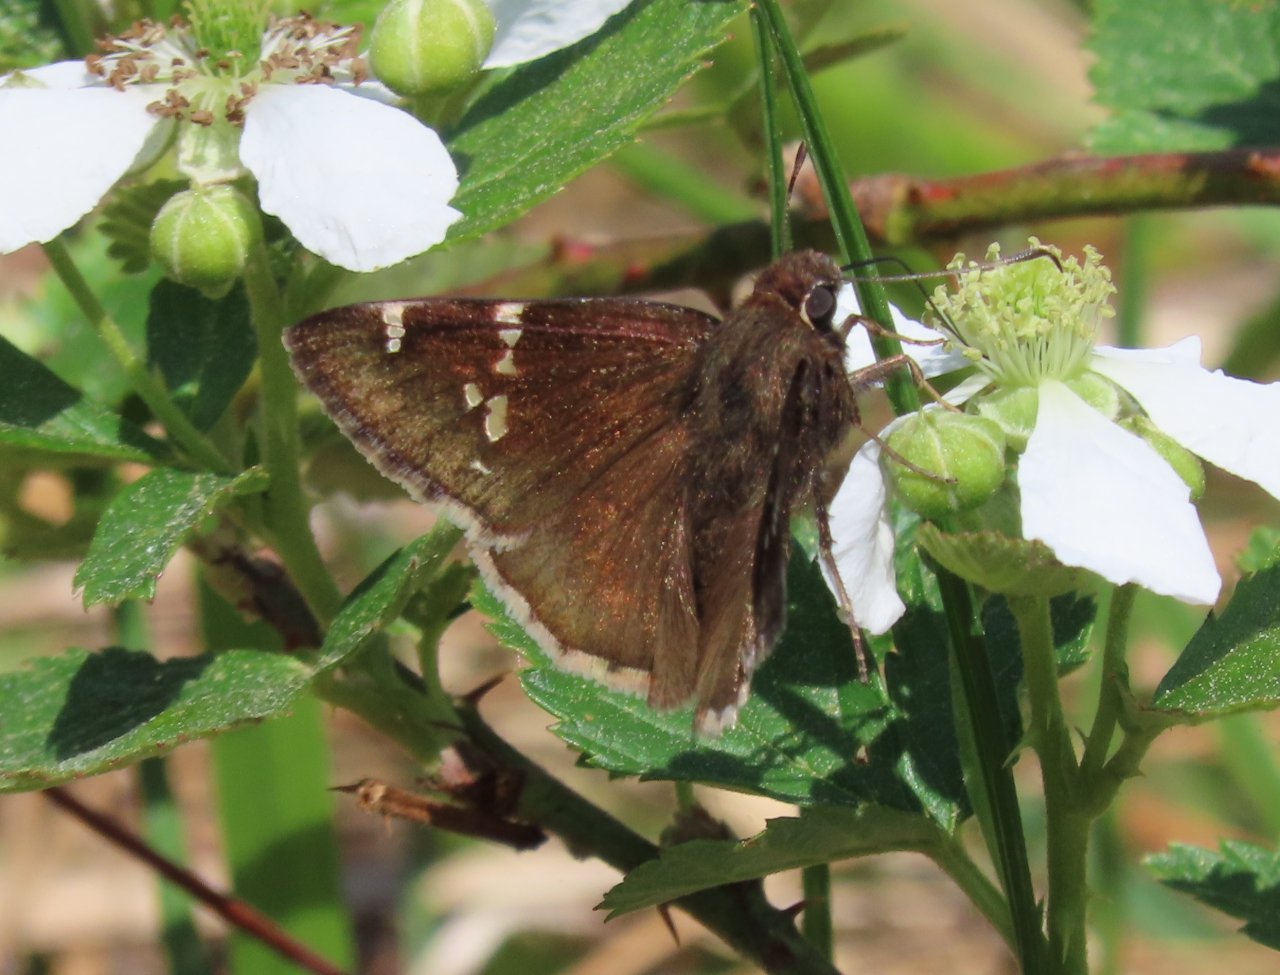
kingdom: Animalia
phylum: Arthropoda
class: Insecta
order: Lepidoptera
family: Hesperiidae
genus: Autochton
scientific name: Autochton
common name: Southern Cloudywing
